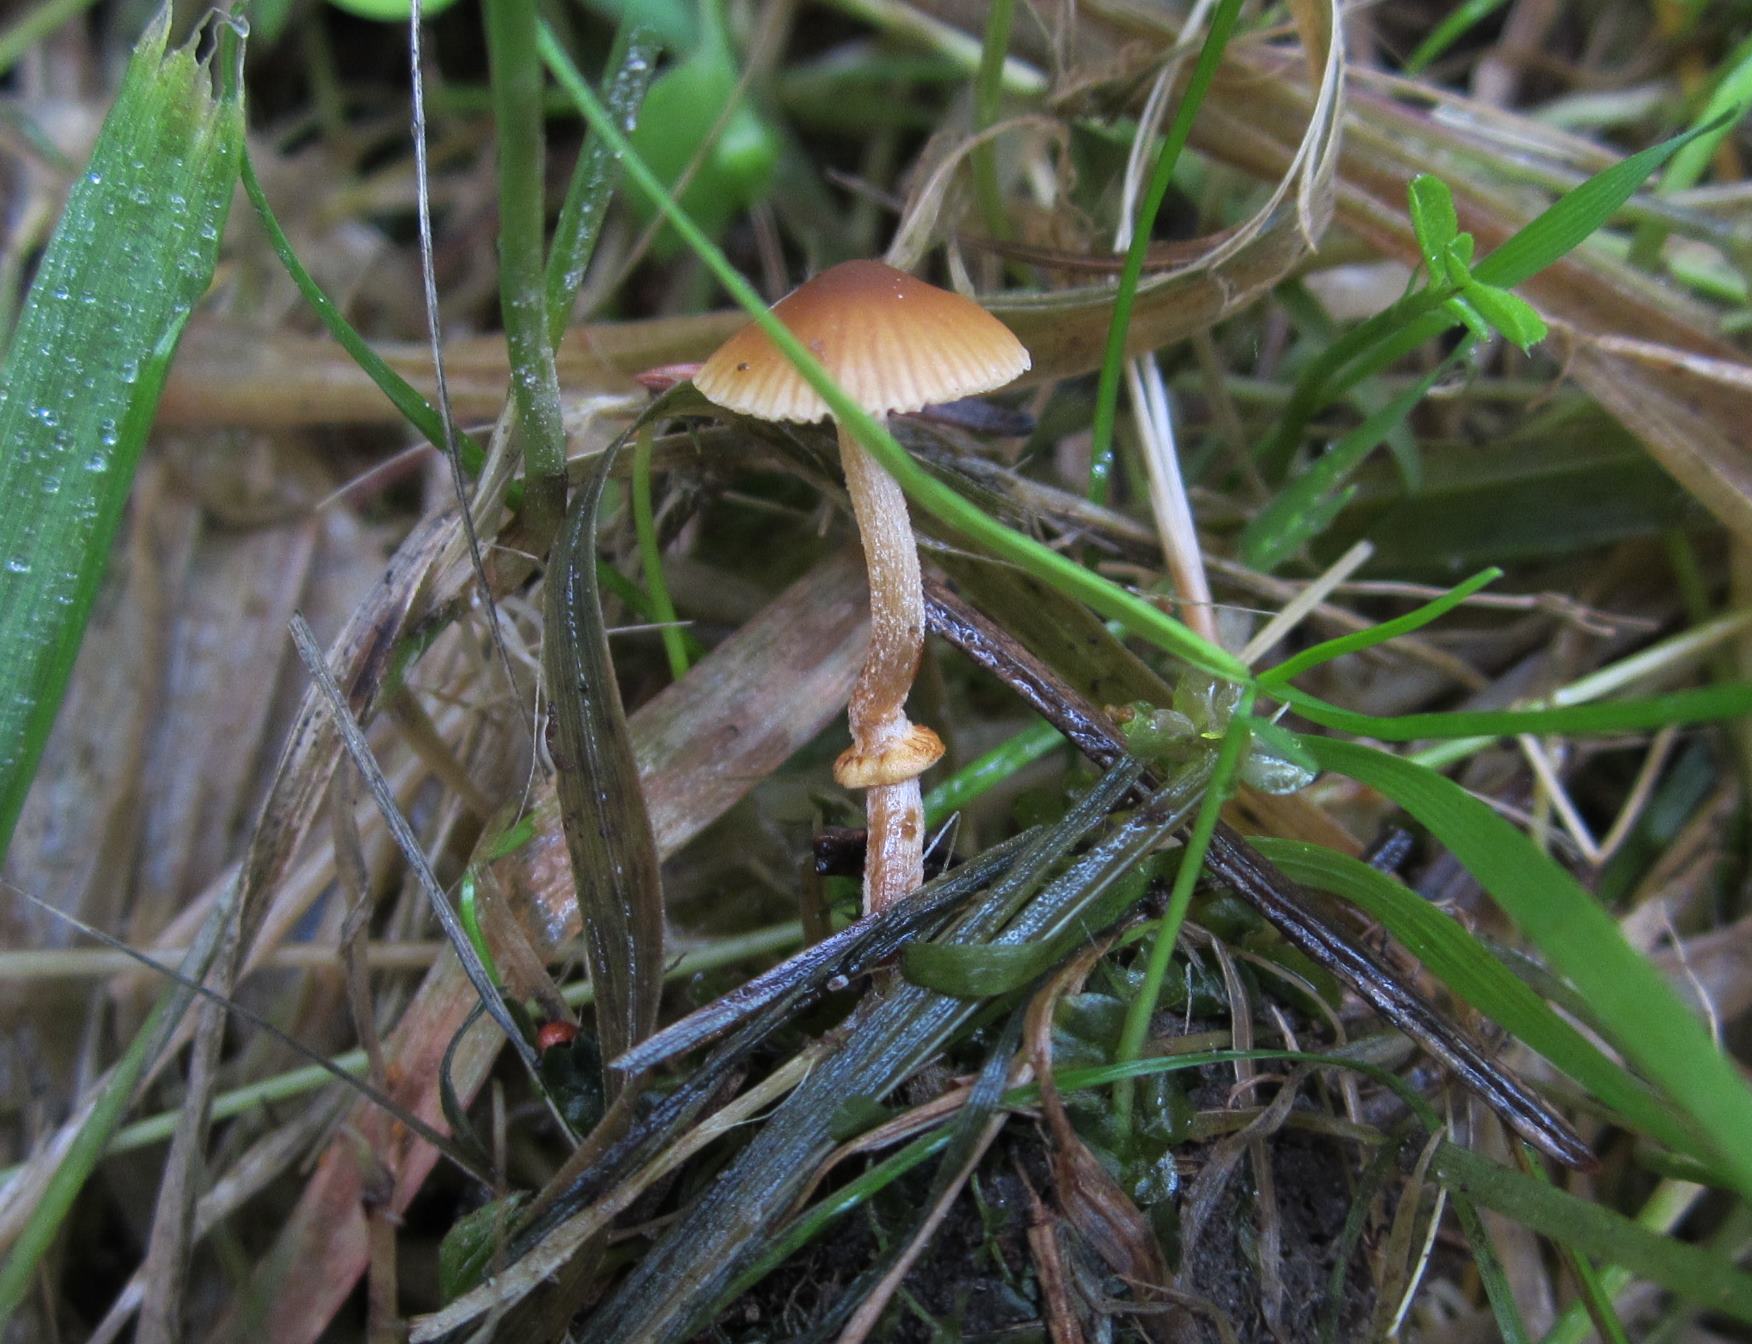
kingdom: Fungi
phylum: Basidiomycota
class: Agaricomycetes
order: Agaricales
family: Bolbitiaceae
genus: Conocybe
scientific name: Conocybe arrhenii
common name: ring-dansehat
